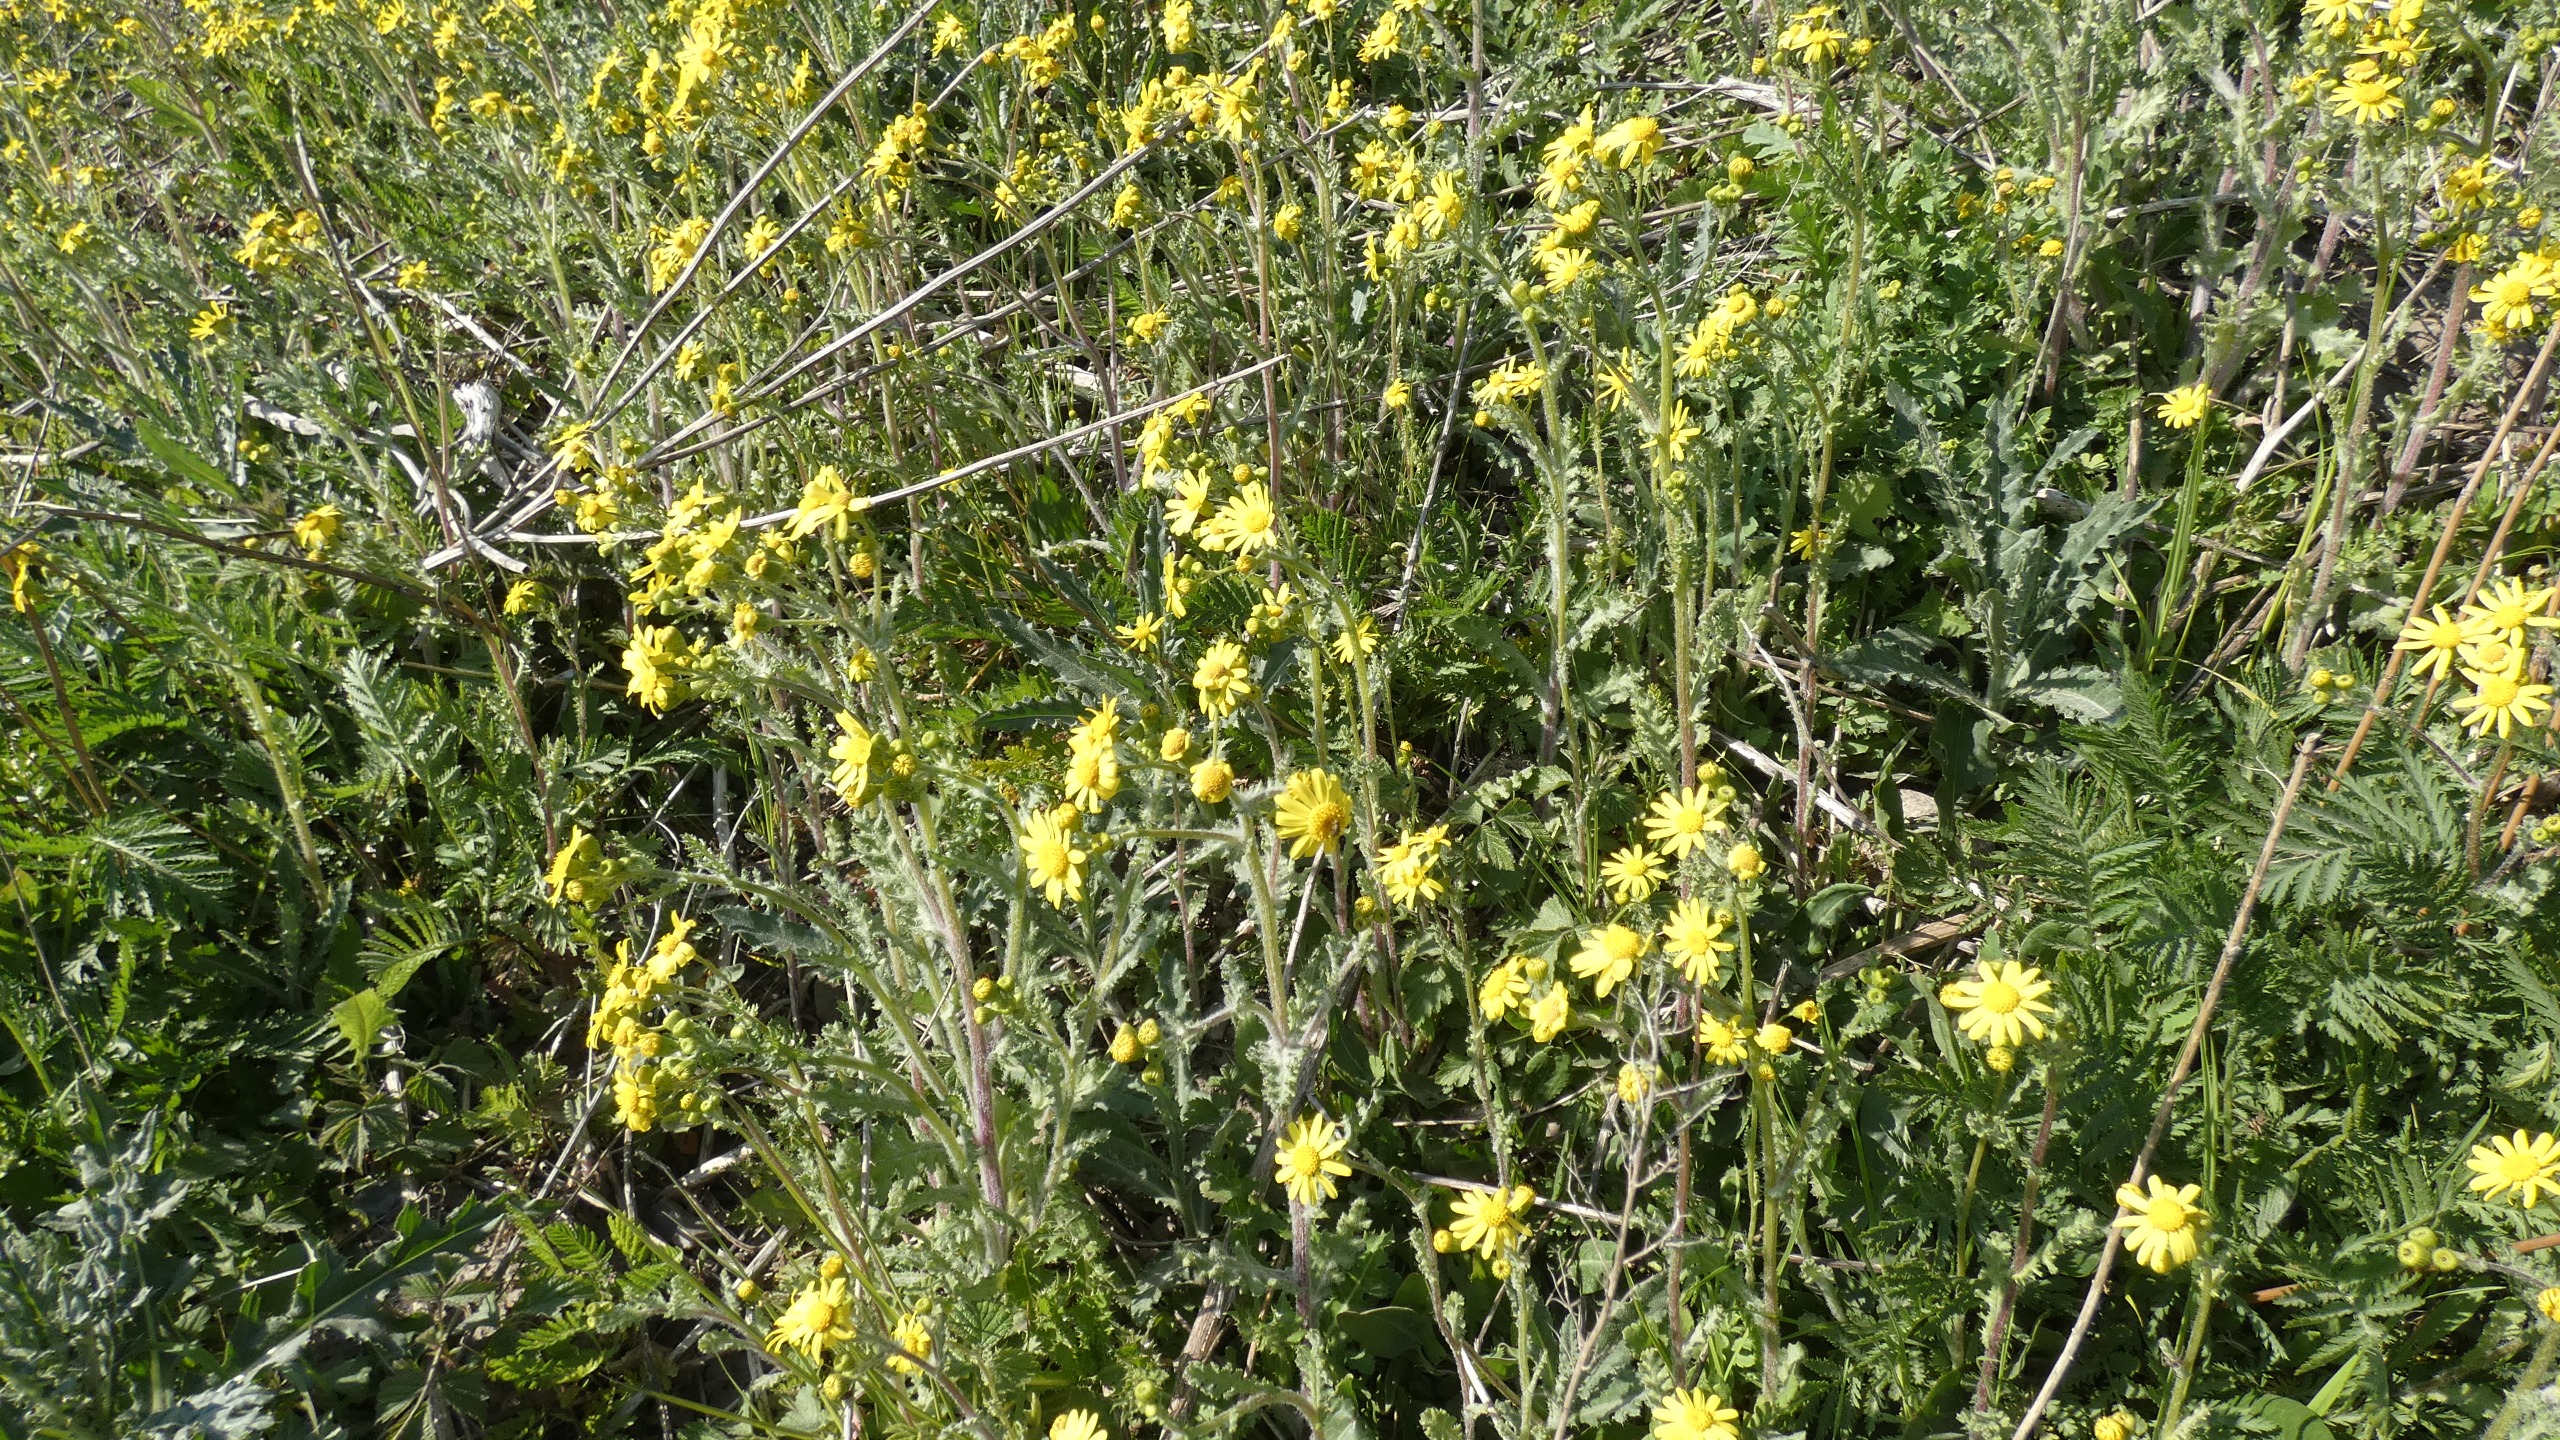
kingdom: Plantae
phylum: Tracheophyta
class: Magnoliopsida
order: Asterales
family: Asteraceae
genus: Jacobaea
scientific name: Jacobaea vulgaris
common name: Eng-brandbæger
